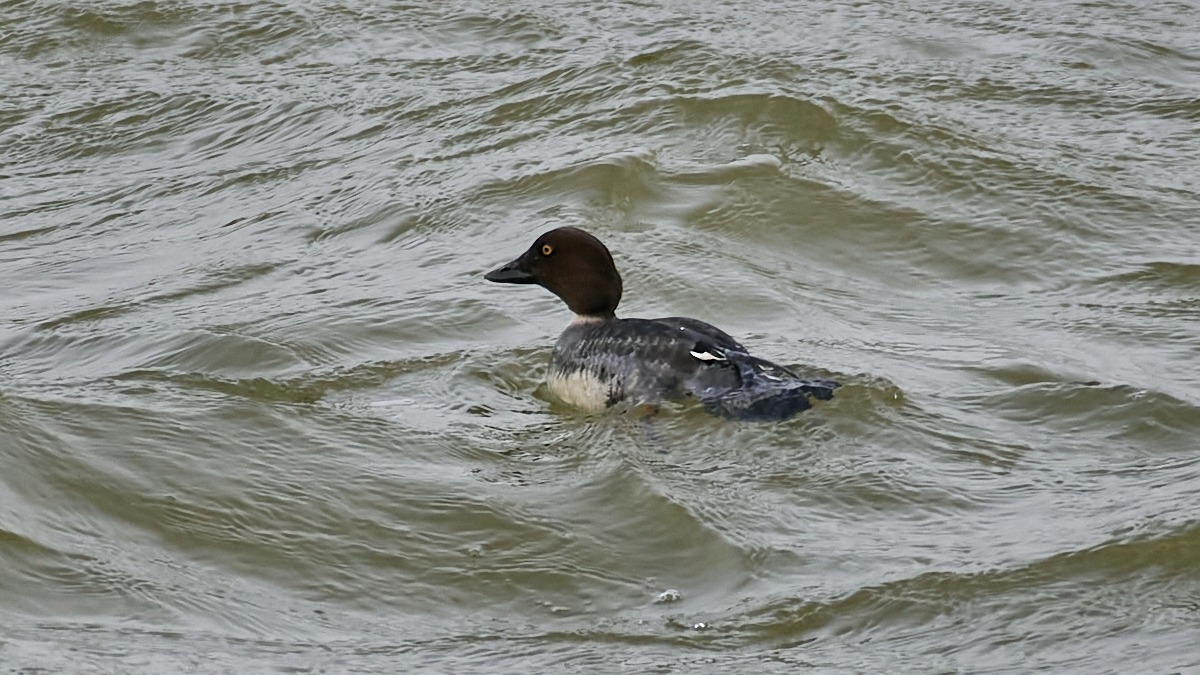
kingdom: Animalia
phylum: Chordata
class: Aves
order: Anseriformes
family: Anatidae
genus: Bucephala
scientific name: Bucephala clangula
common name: Hvinand
